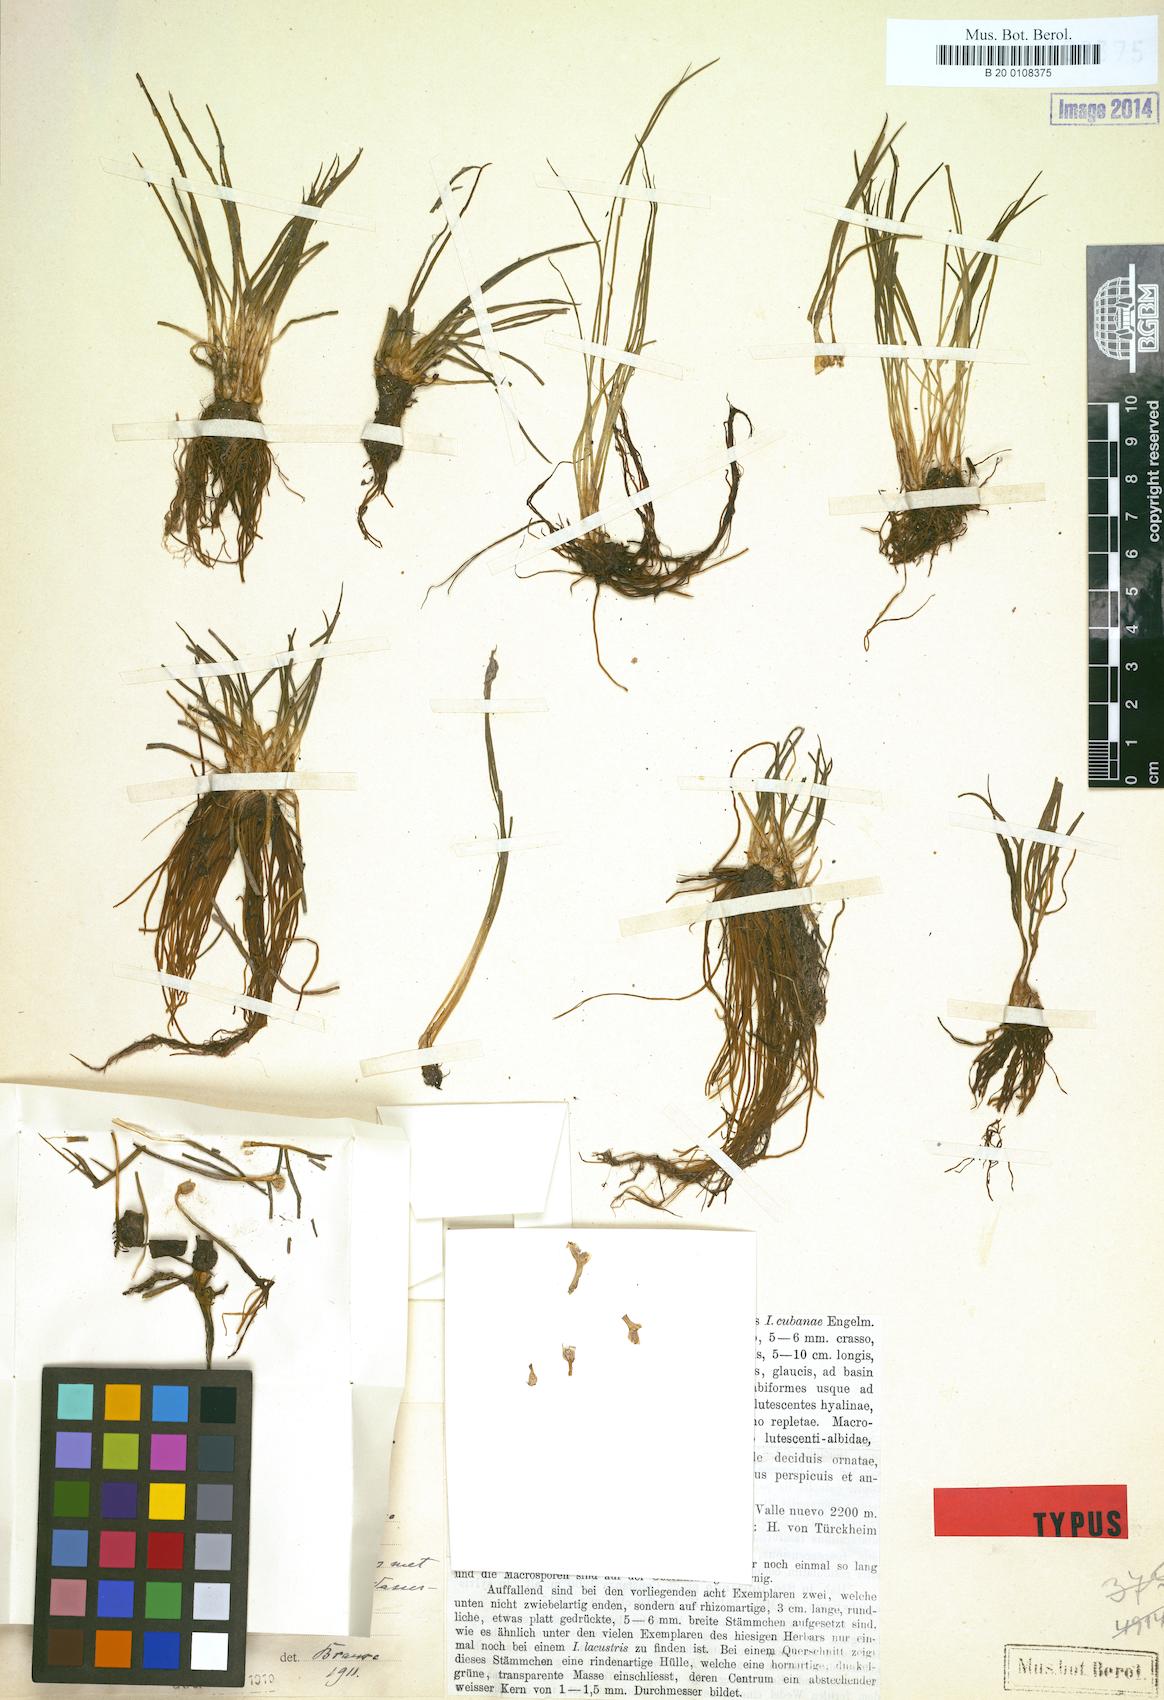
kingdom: Plantae
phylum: Tracheophyta
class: Lycopodiopsida
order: Isoetales
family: Isoetaceae
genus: Isoetes
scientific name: Isoetes tuerckheimii
